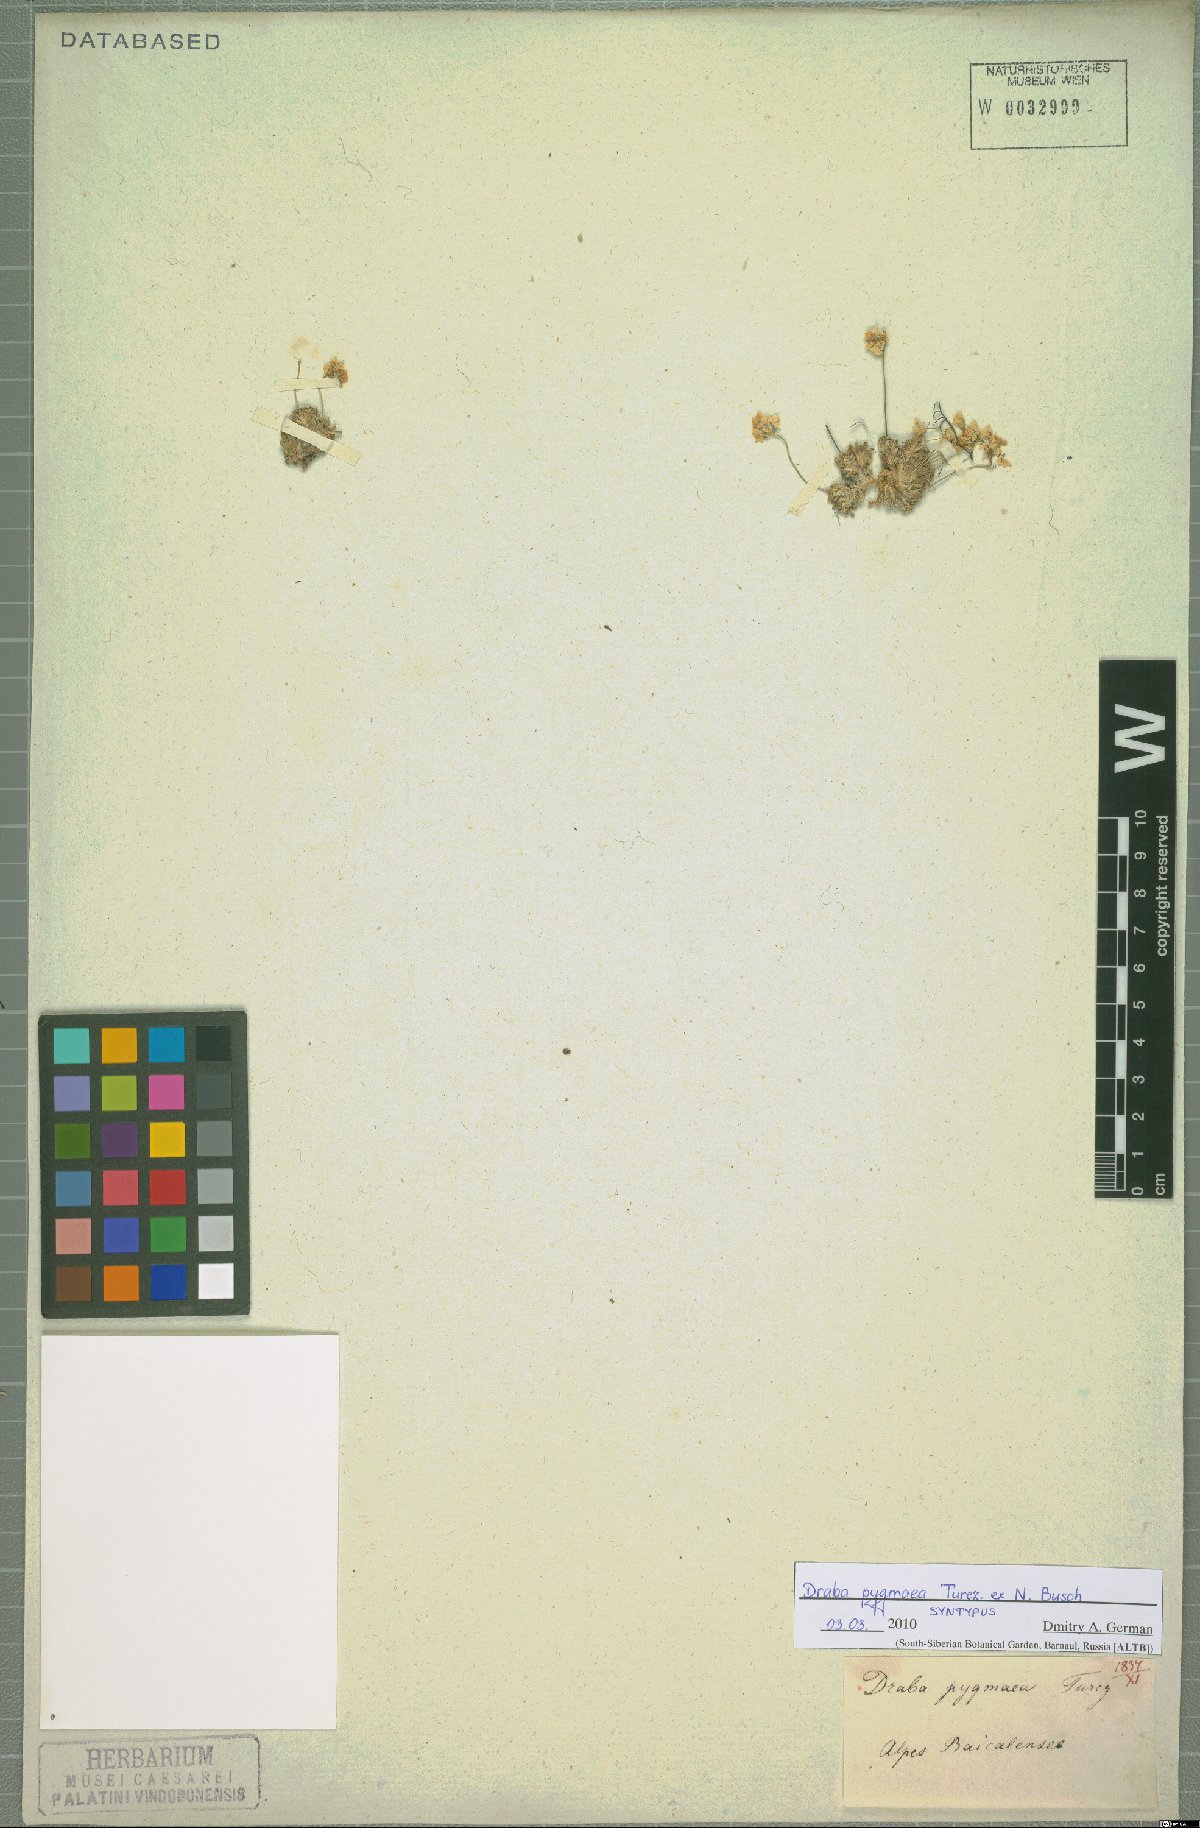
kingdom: Plantae
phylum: Tracheophyta
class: Magnoliopsida
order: Brassicales
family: Brassicaceae
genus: Draba
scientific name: Draba pygmaea
